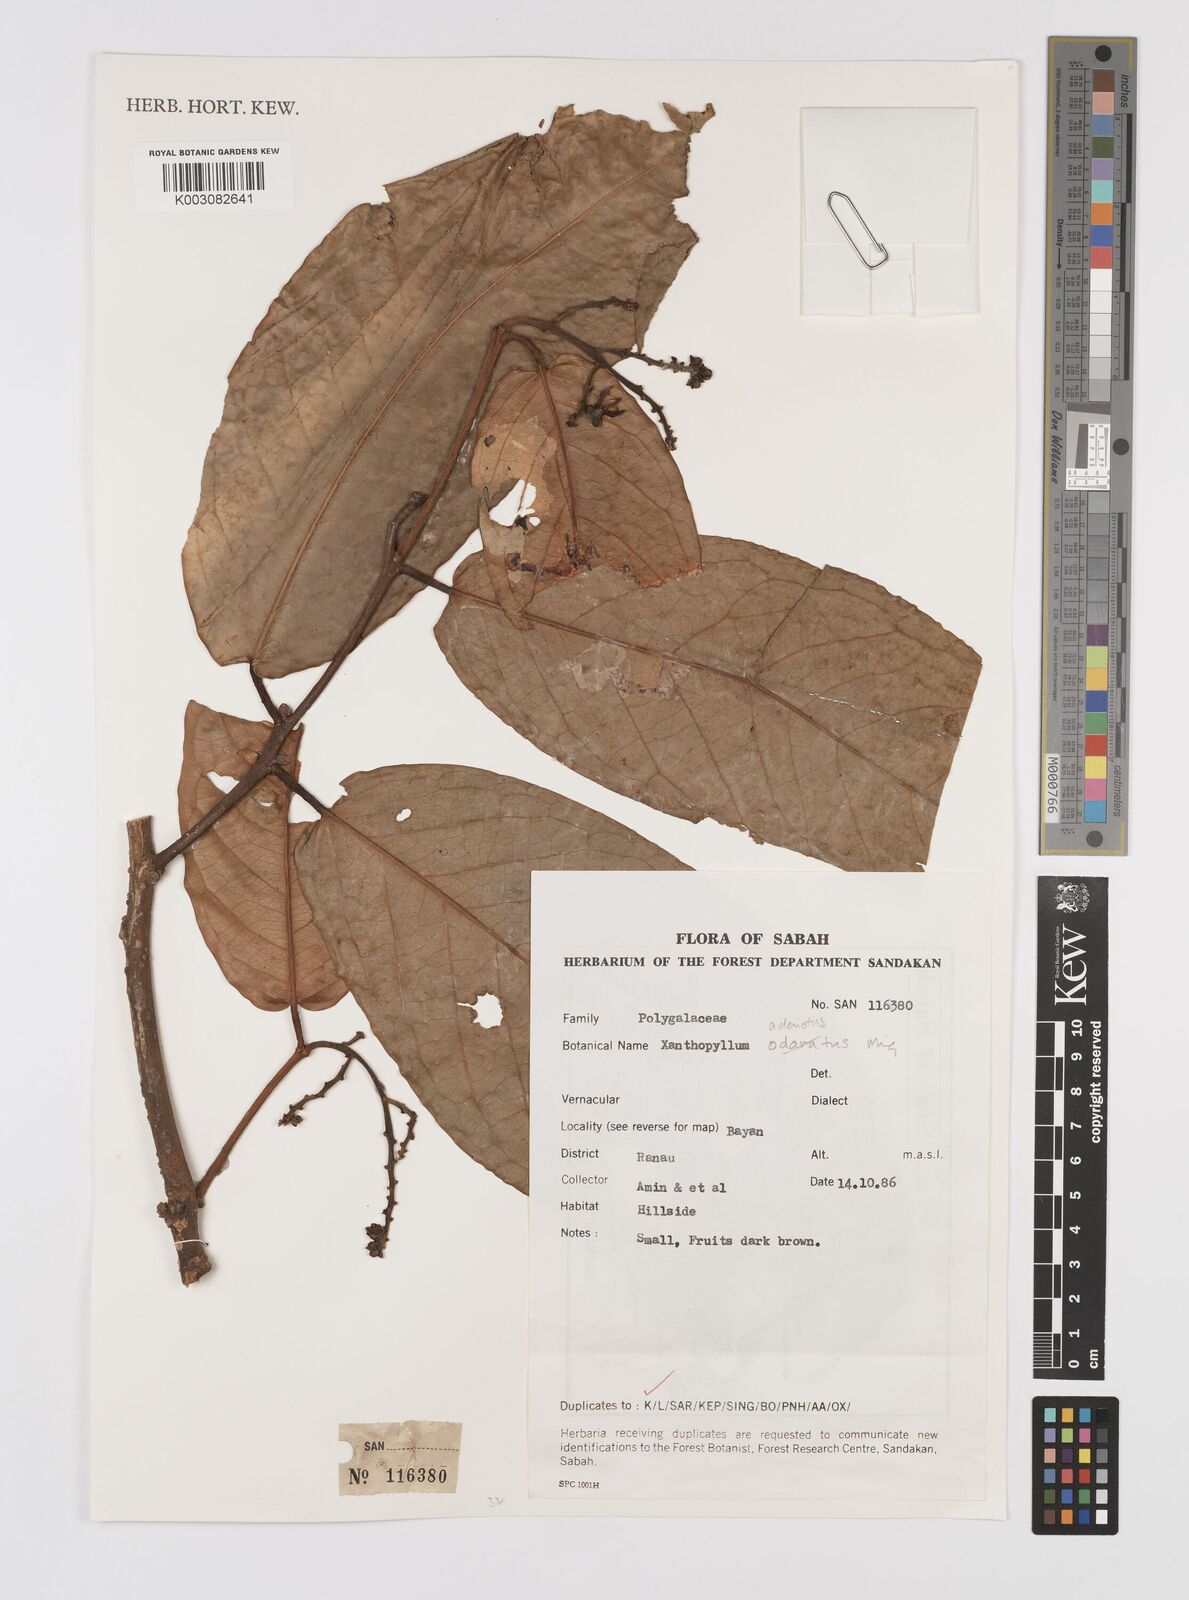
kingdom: Plantae
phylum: Tracheophyta
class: Magnoliopsida
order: Fabales
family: Polygalaceae
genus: Xanthophyllum
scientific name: Xanthophyllum adenotus
